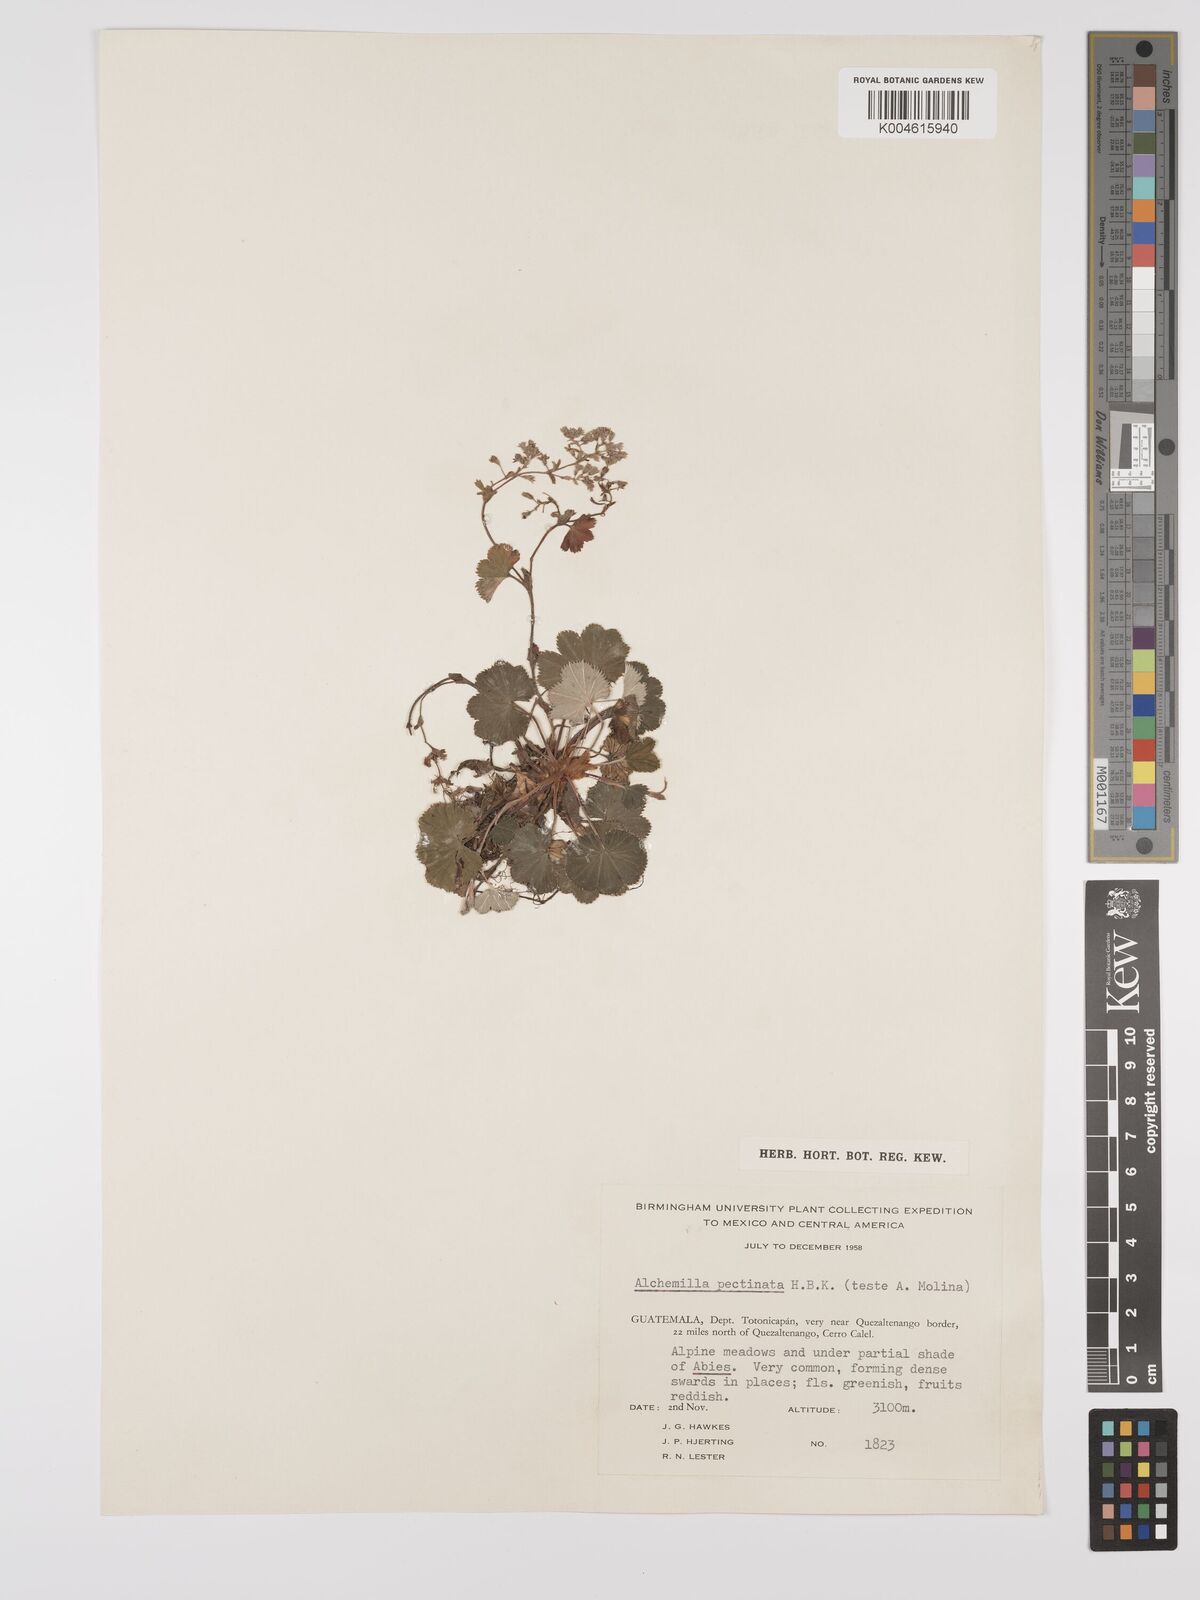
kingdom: Plantae
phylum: Tracheophyta
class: Magnoliopsida
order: Rosales
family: Rosaceae
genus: Lachemilla
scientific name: Lachemilla pectinata
